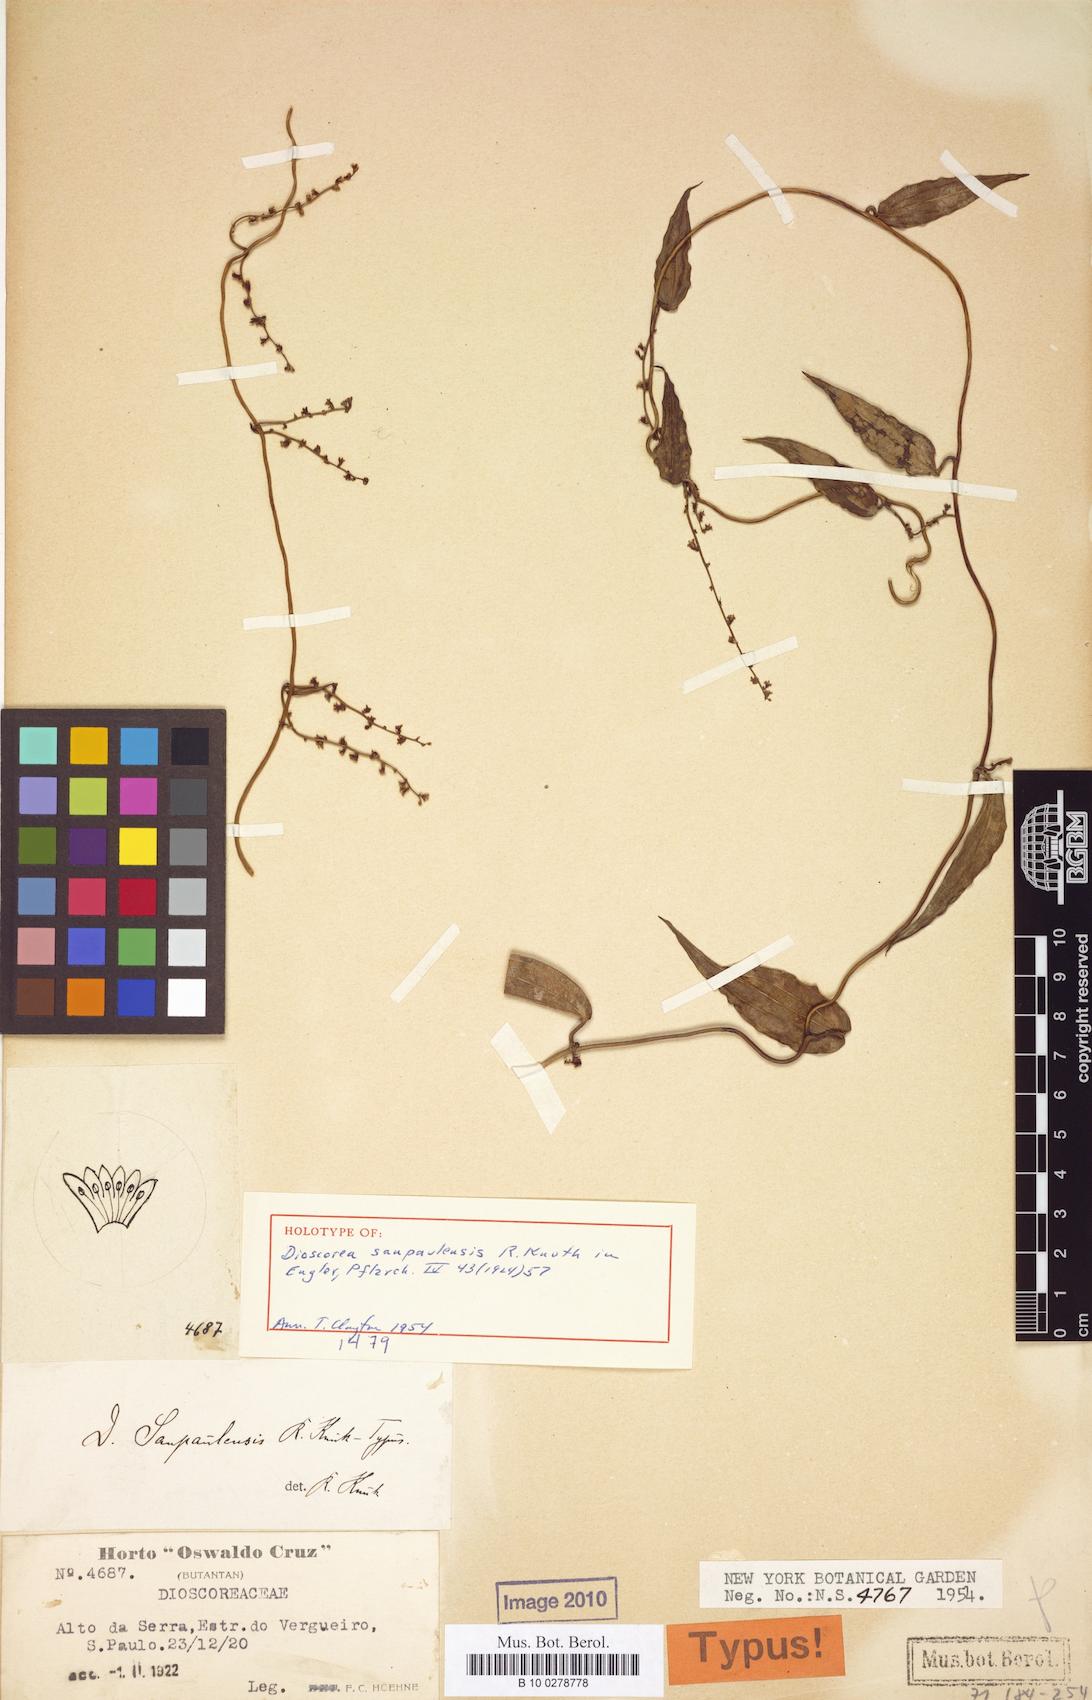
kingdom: Plantae
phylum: Tracheophyta
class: Liliopsida
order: Dioscoreales
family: Dioscoreaceae
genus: Dioscorea
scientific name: Dioscorea sanpaulensis
